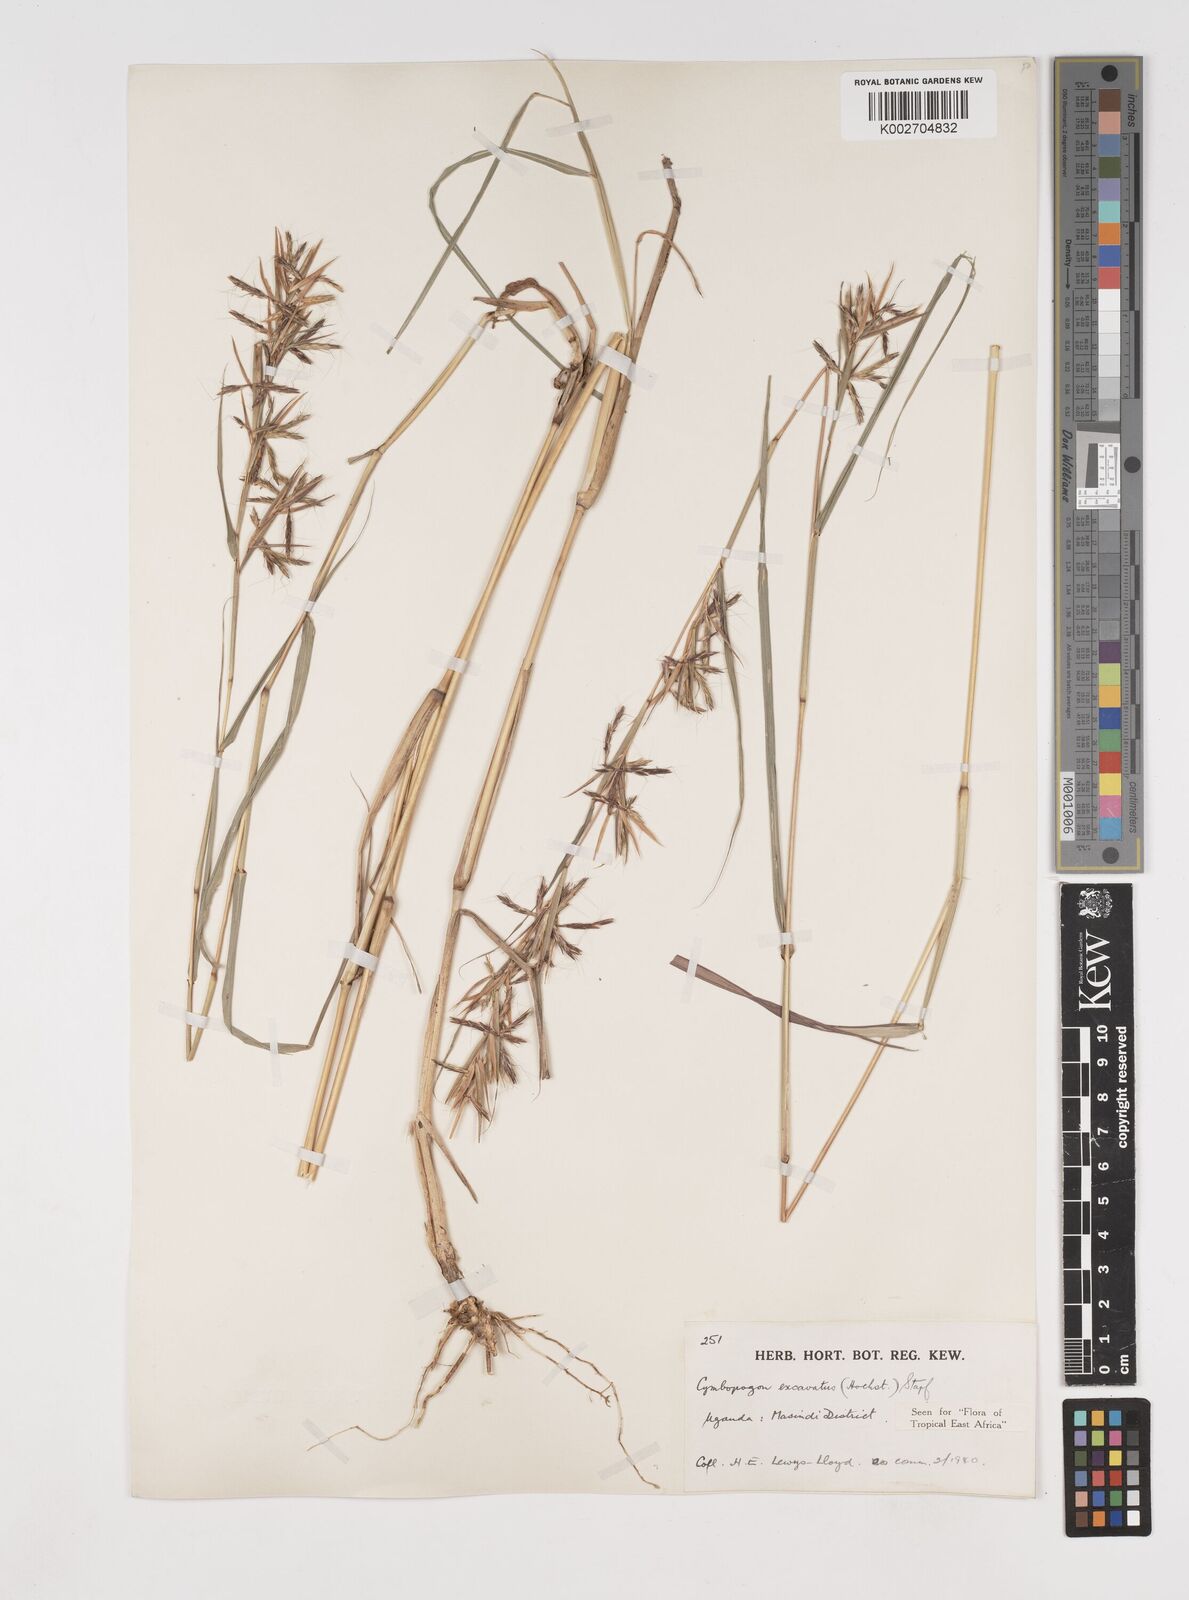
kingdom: Plantae
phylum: Tracheophyta
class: Liliopsida
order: Poales
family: Poaceae
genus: Cymbopogon
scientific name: Cymbopogon caesius
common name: Kachi grass
